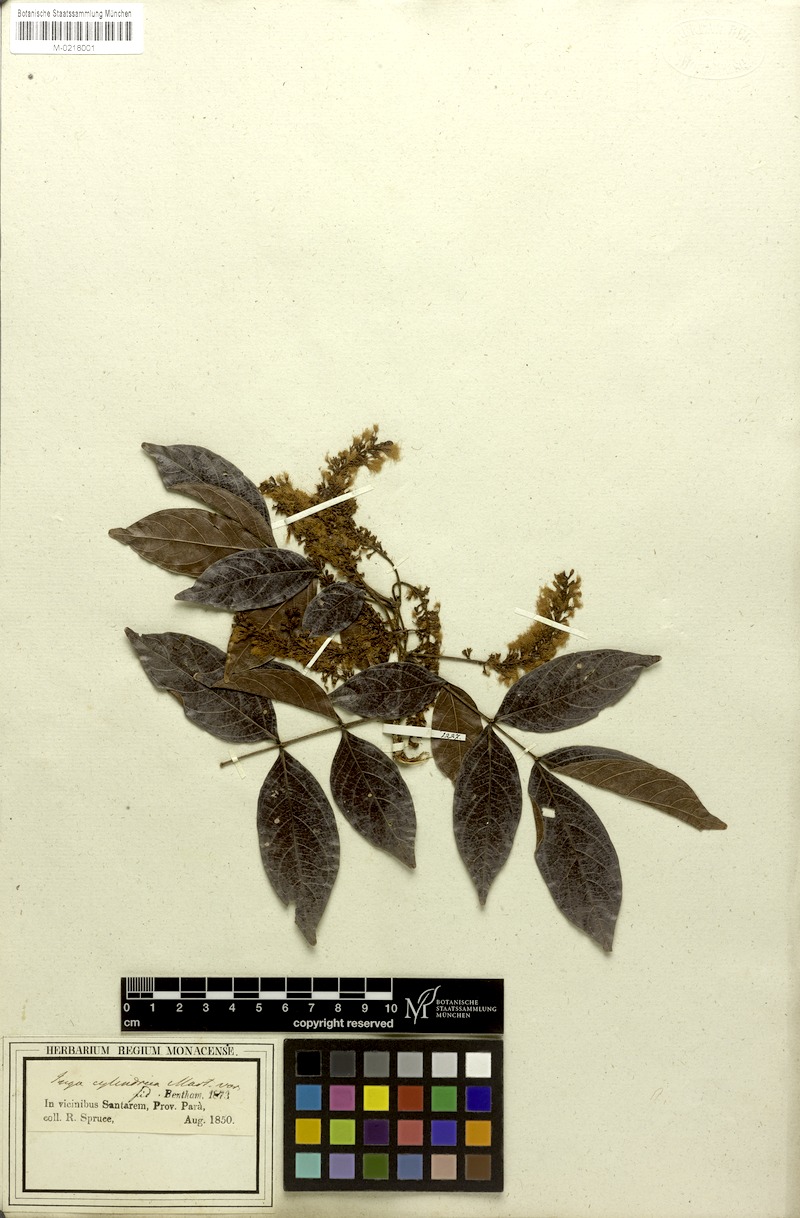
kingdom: Plantae
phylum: Tracheophyta
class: Magnoliopsida
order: Fabales
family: Fabaceae
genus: Inga
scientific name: Inga cylindrica
